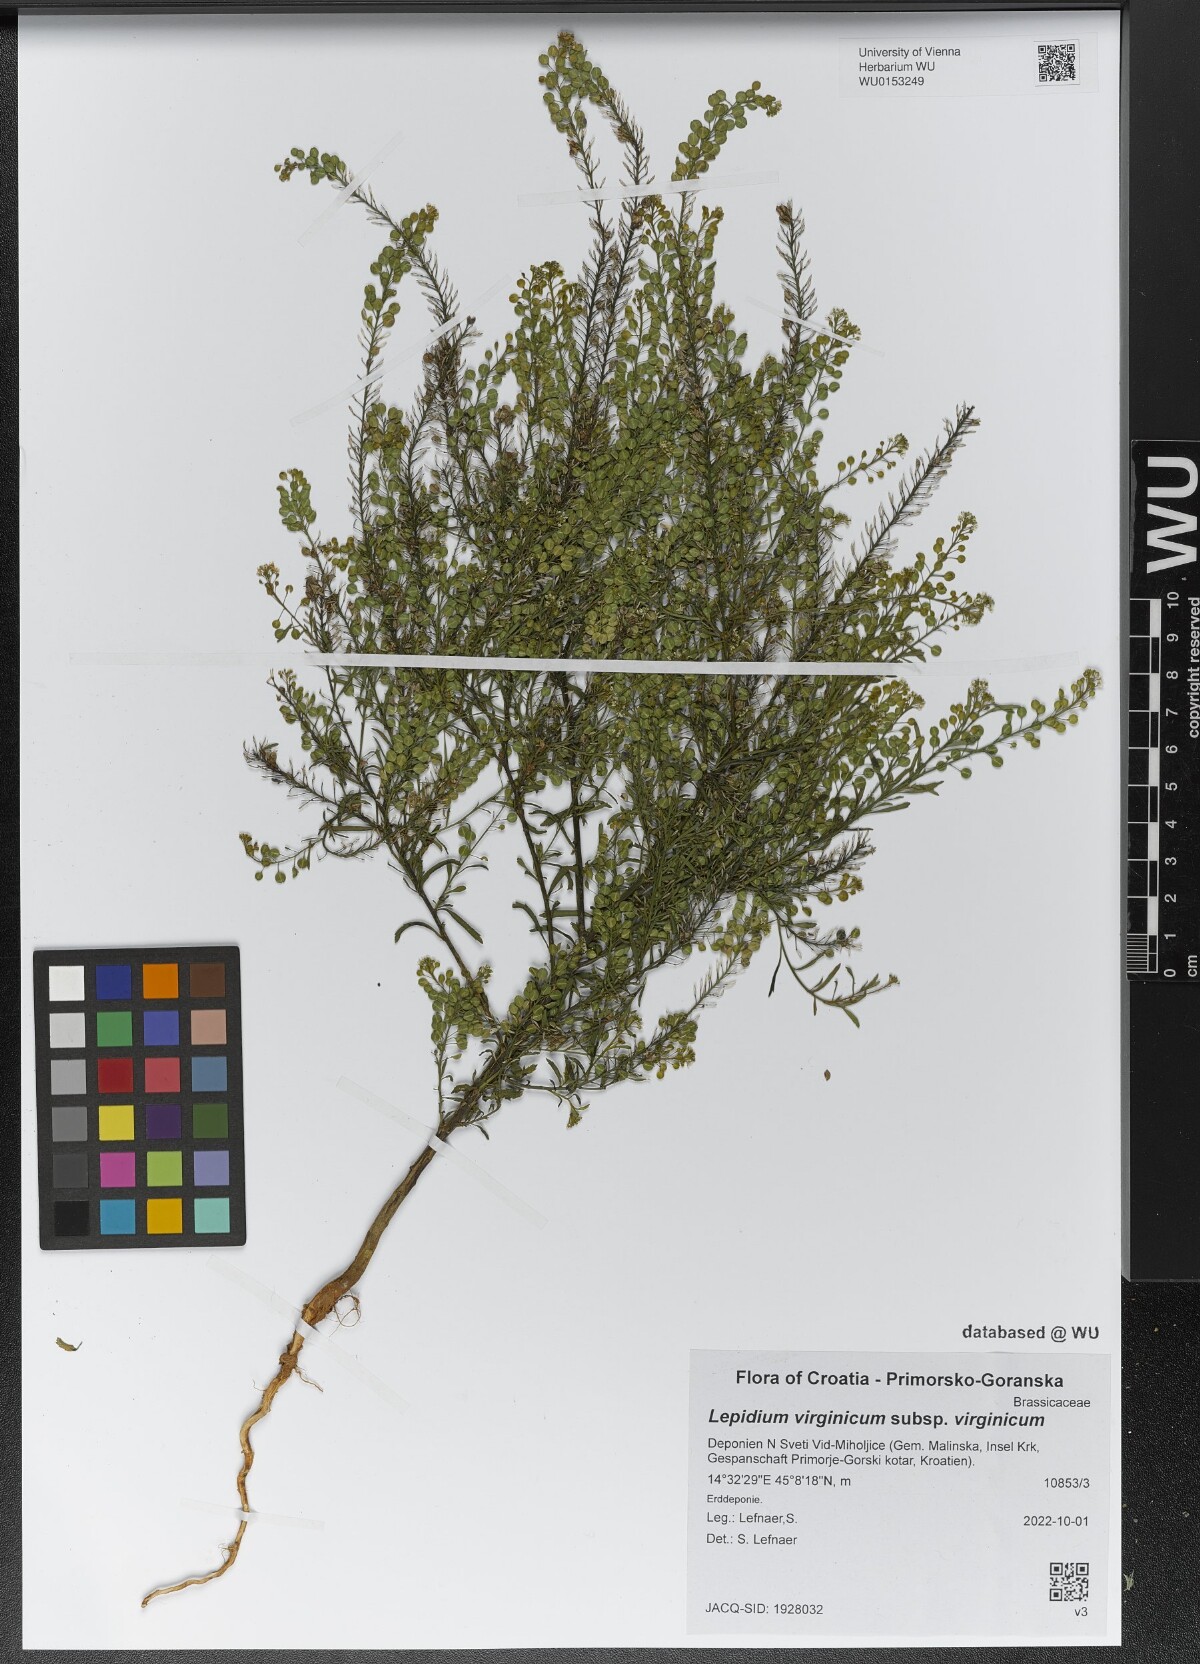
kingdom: Plantae
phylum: Tracheophyta
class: Magnoliopsida
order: Brassicales
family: Brassicaceae
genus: Lepidium
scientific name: Lepidium virginicum
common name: Least pepperwort
